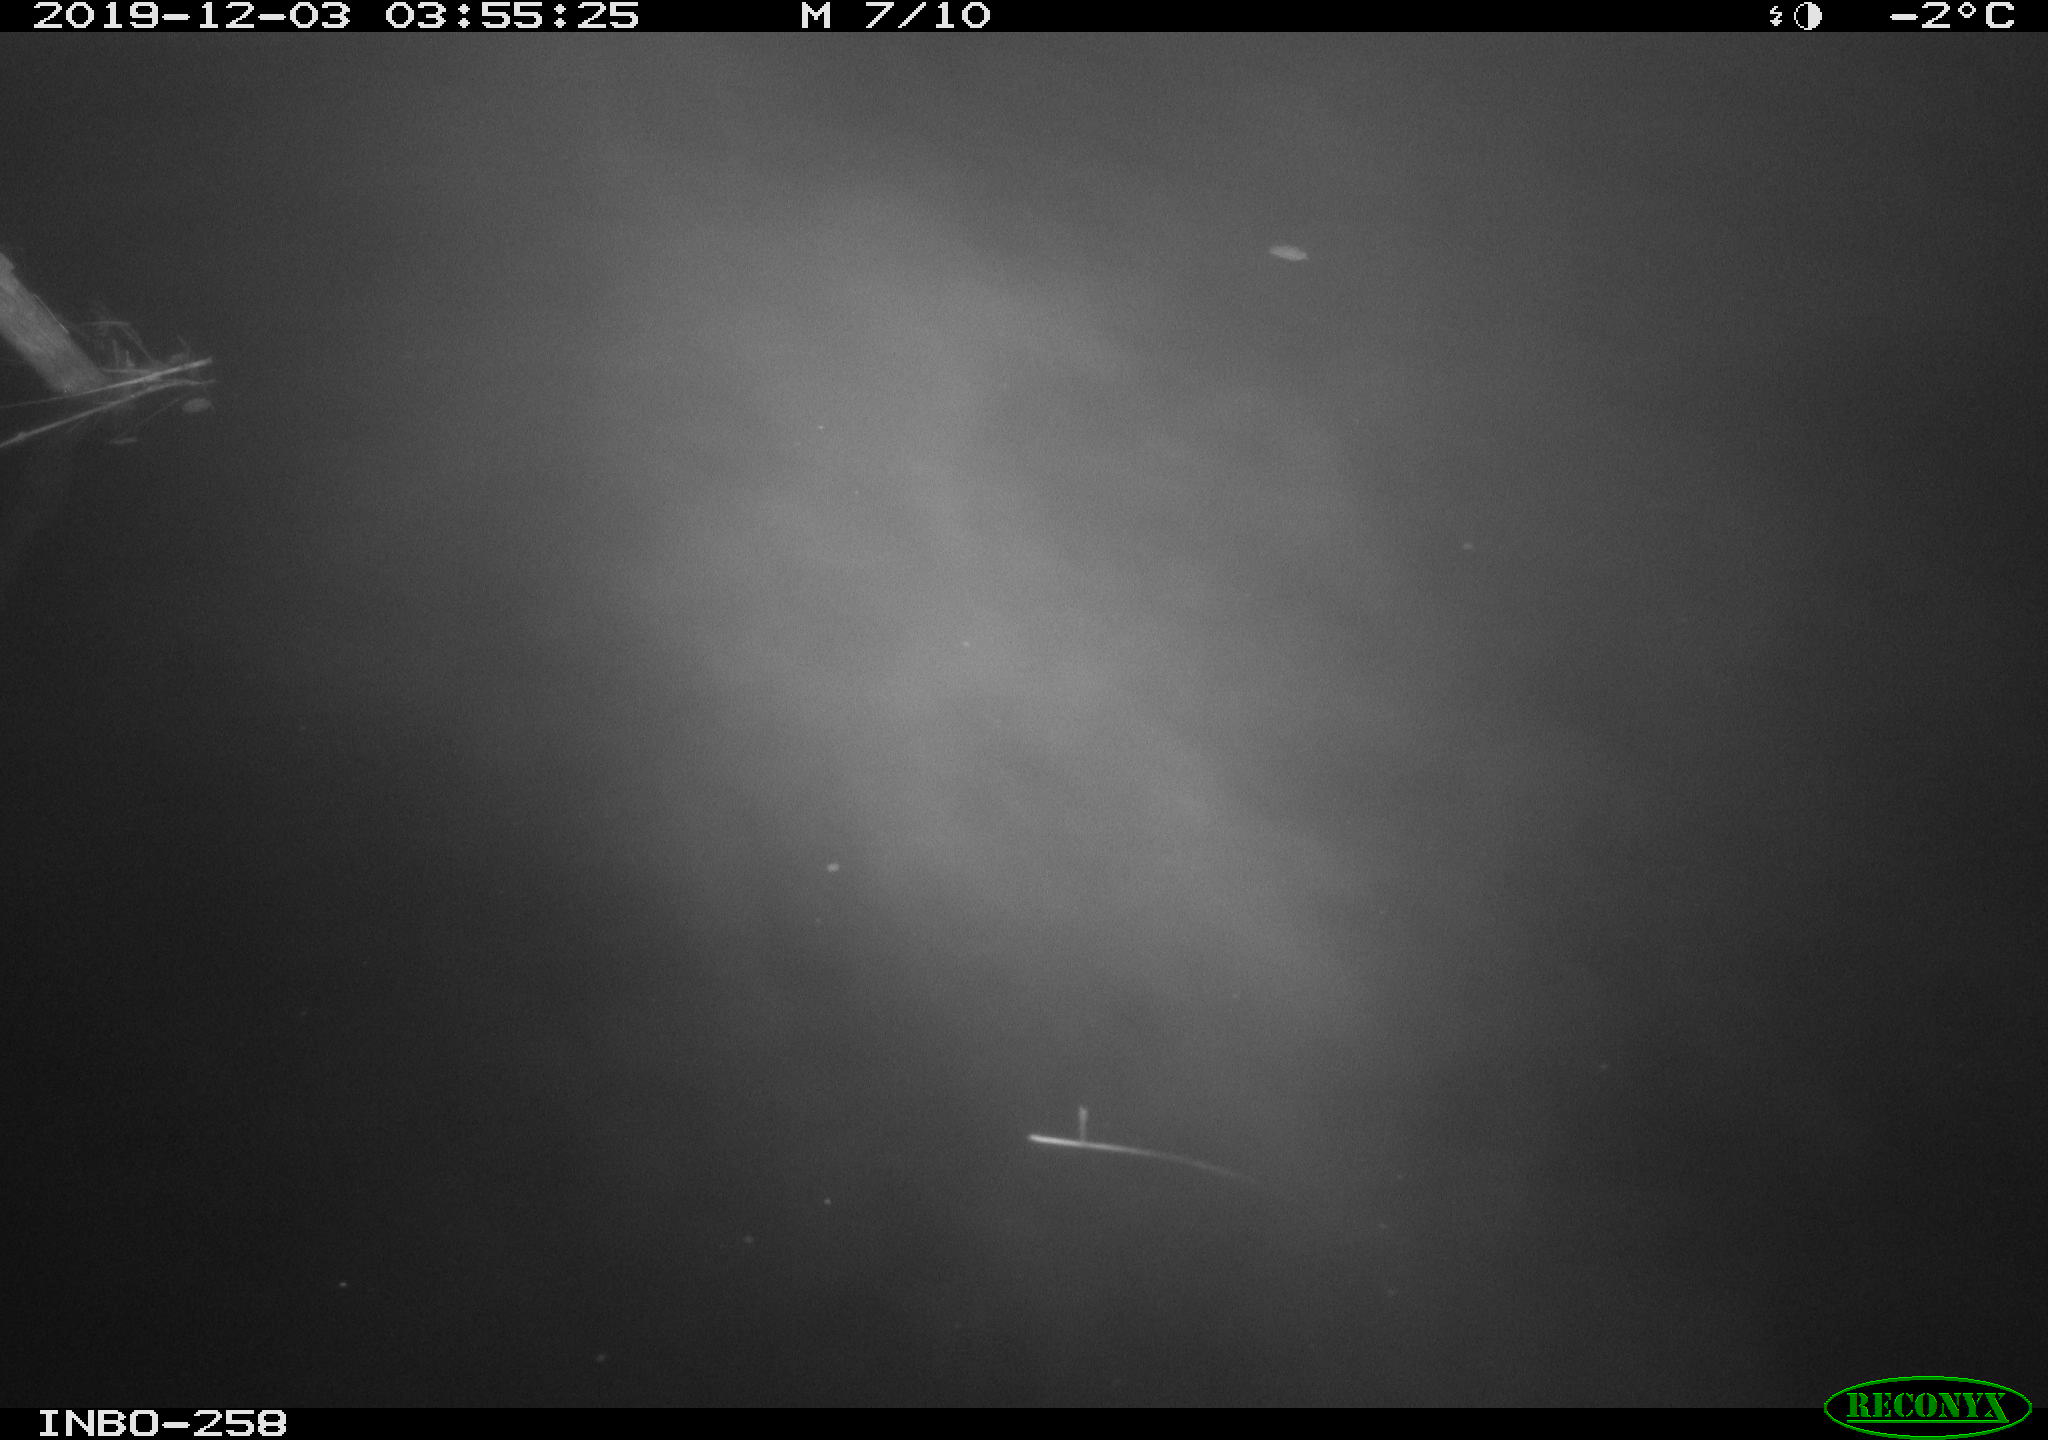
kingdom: Animalia
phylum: Chordata
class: Aves
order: Anseriformes
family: Anatidae
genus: Anas
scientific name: Anas platyrhynchos
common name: Mallard
